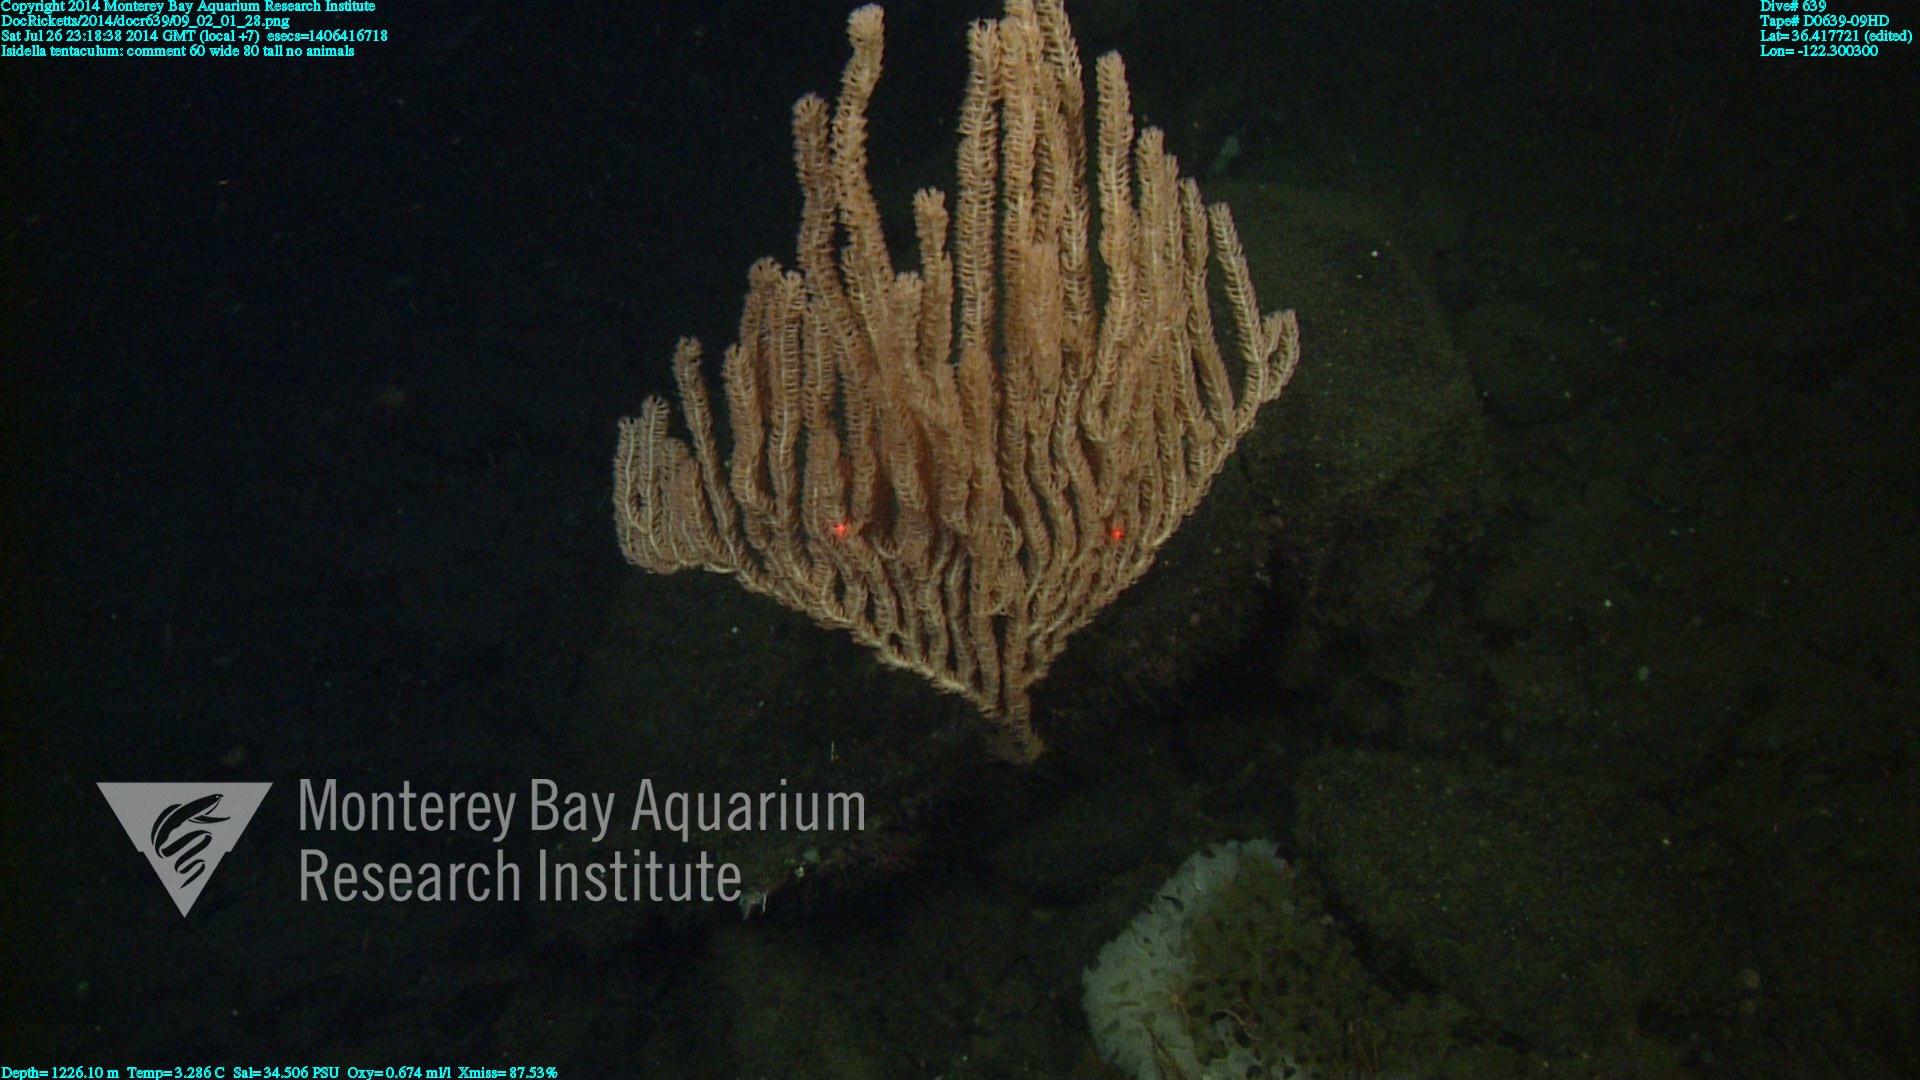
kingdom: Animalia
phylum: Cnidaria
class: Anthozoa
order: Scleralcyonacea
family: Keratoisididae
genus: Isidella
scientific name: Isidella tentaculum
